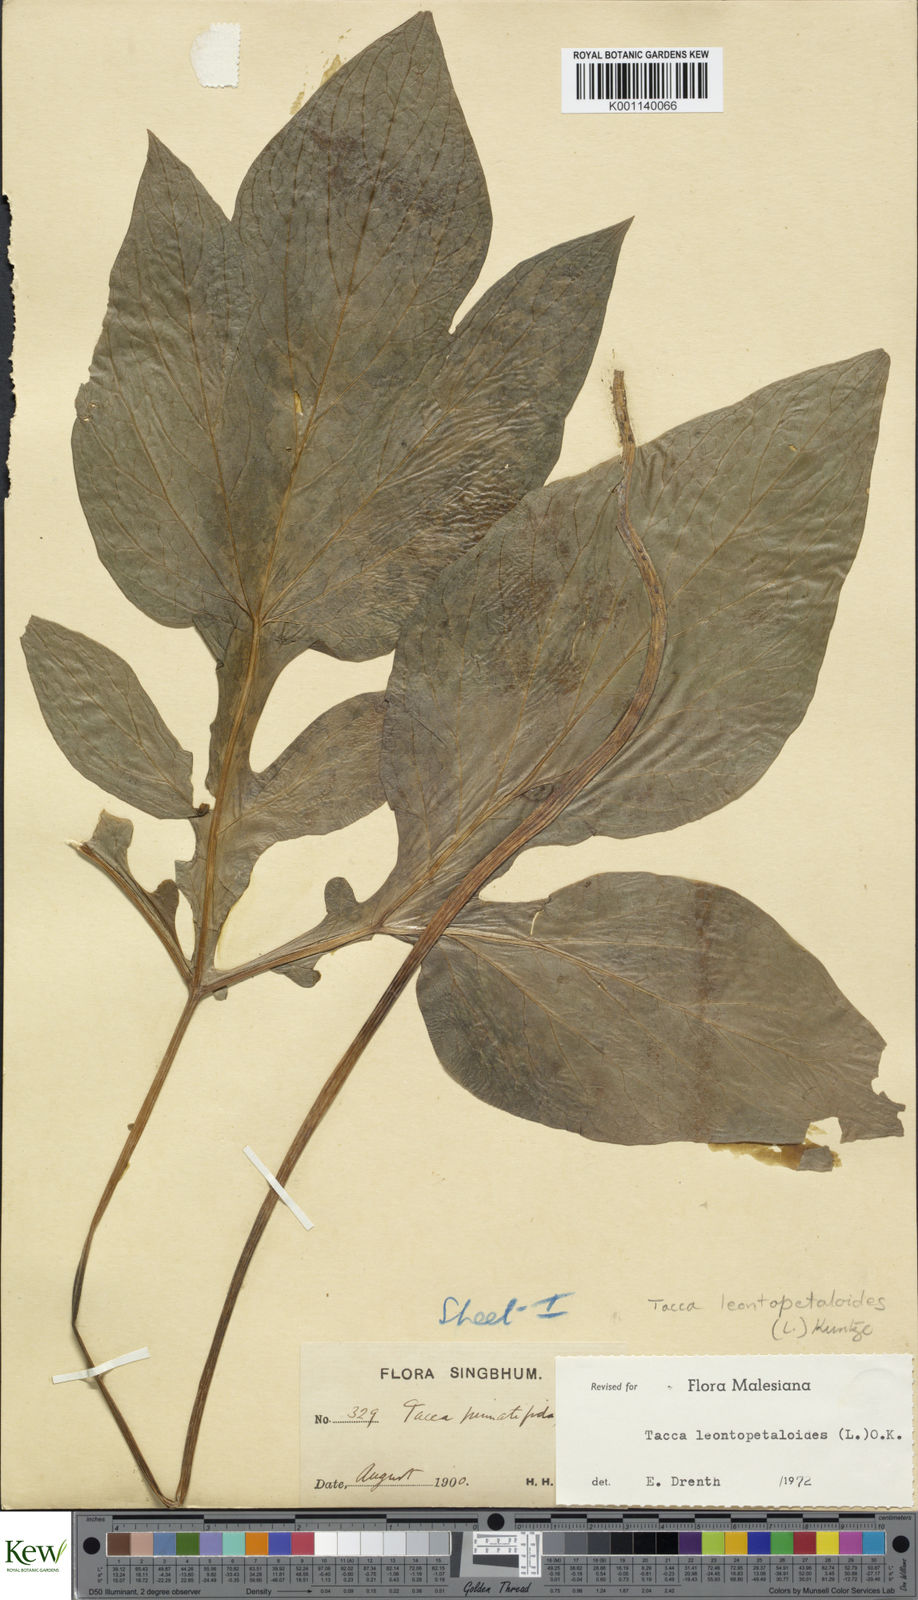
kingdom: Plantae
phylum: Tracheophyta
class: Liliopsida
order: Dioscoreales
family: Dioscoreaceae
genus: Tacca
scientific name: Tacca leontopetaloides
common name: Arrowroot
